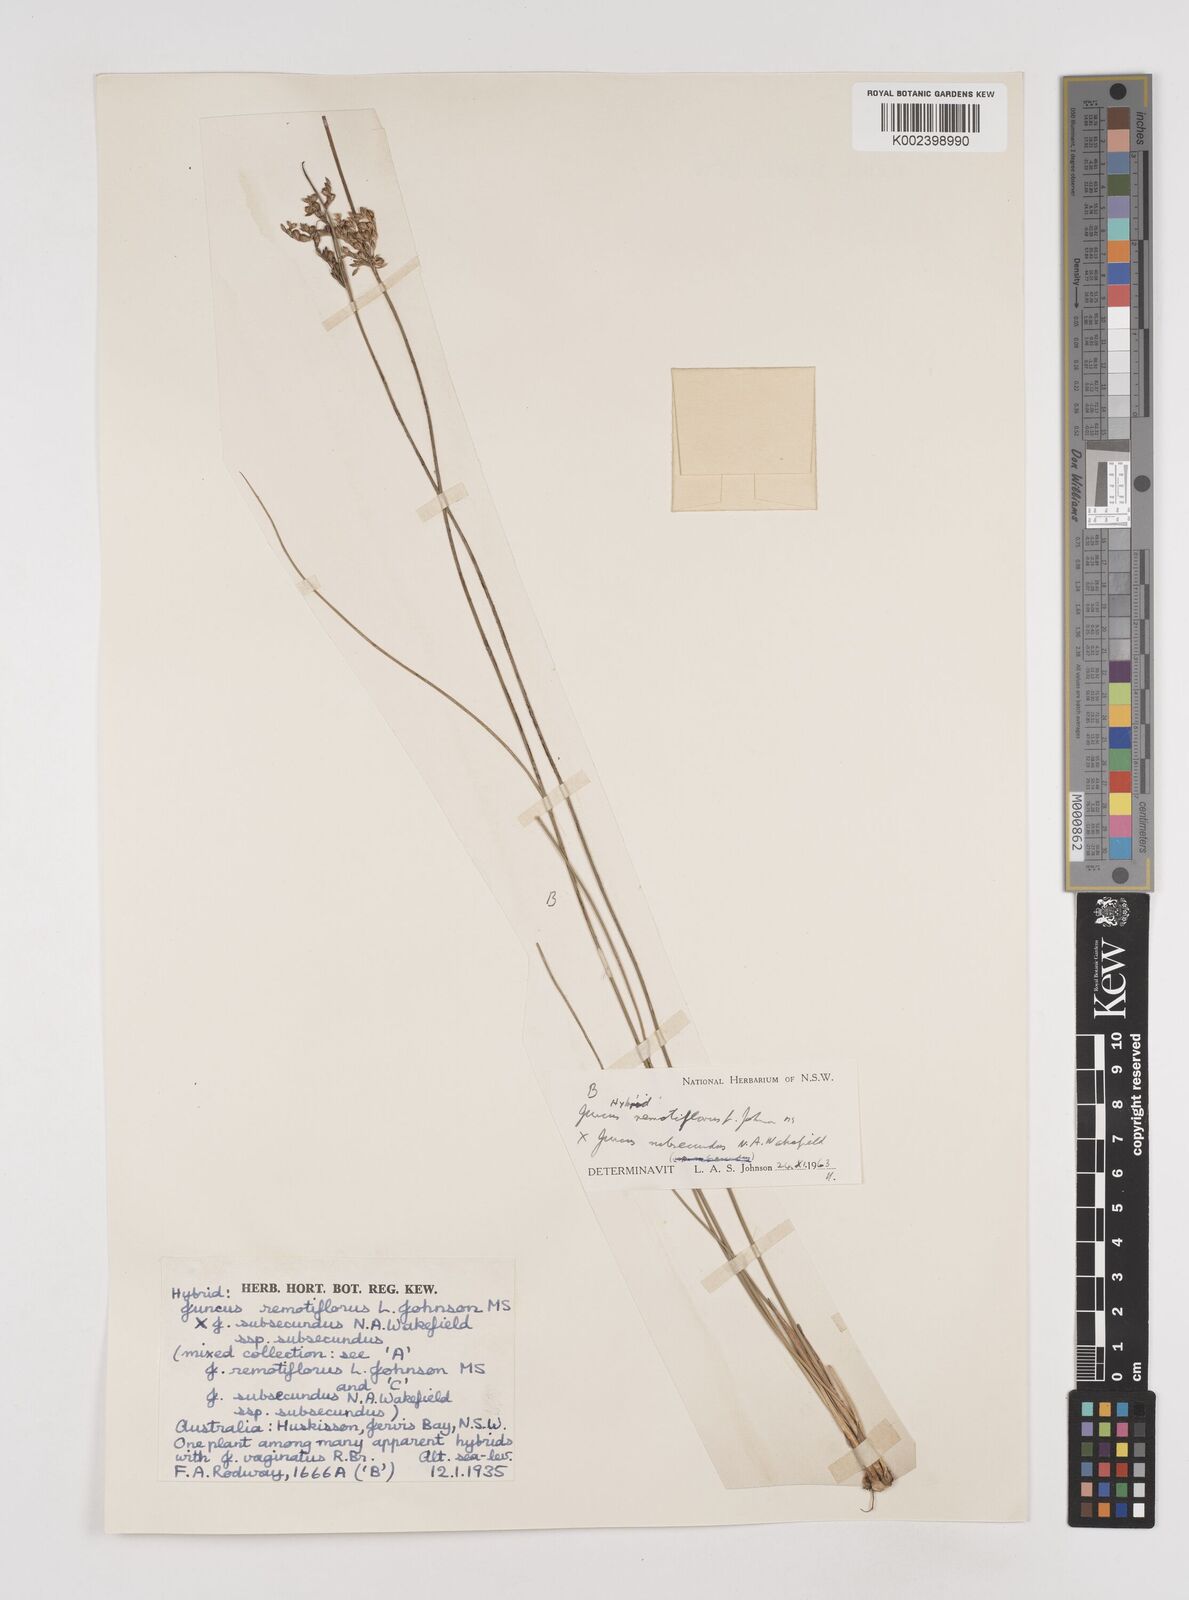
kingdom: Plantae
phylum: Tracheophyta
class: Liliopsida
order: Poales
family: Juncaceae
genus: Juncus
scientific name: Juncus remotiflorus
